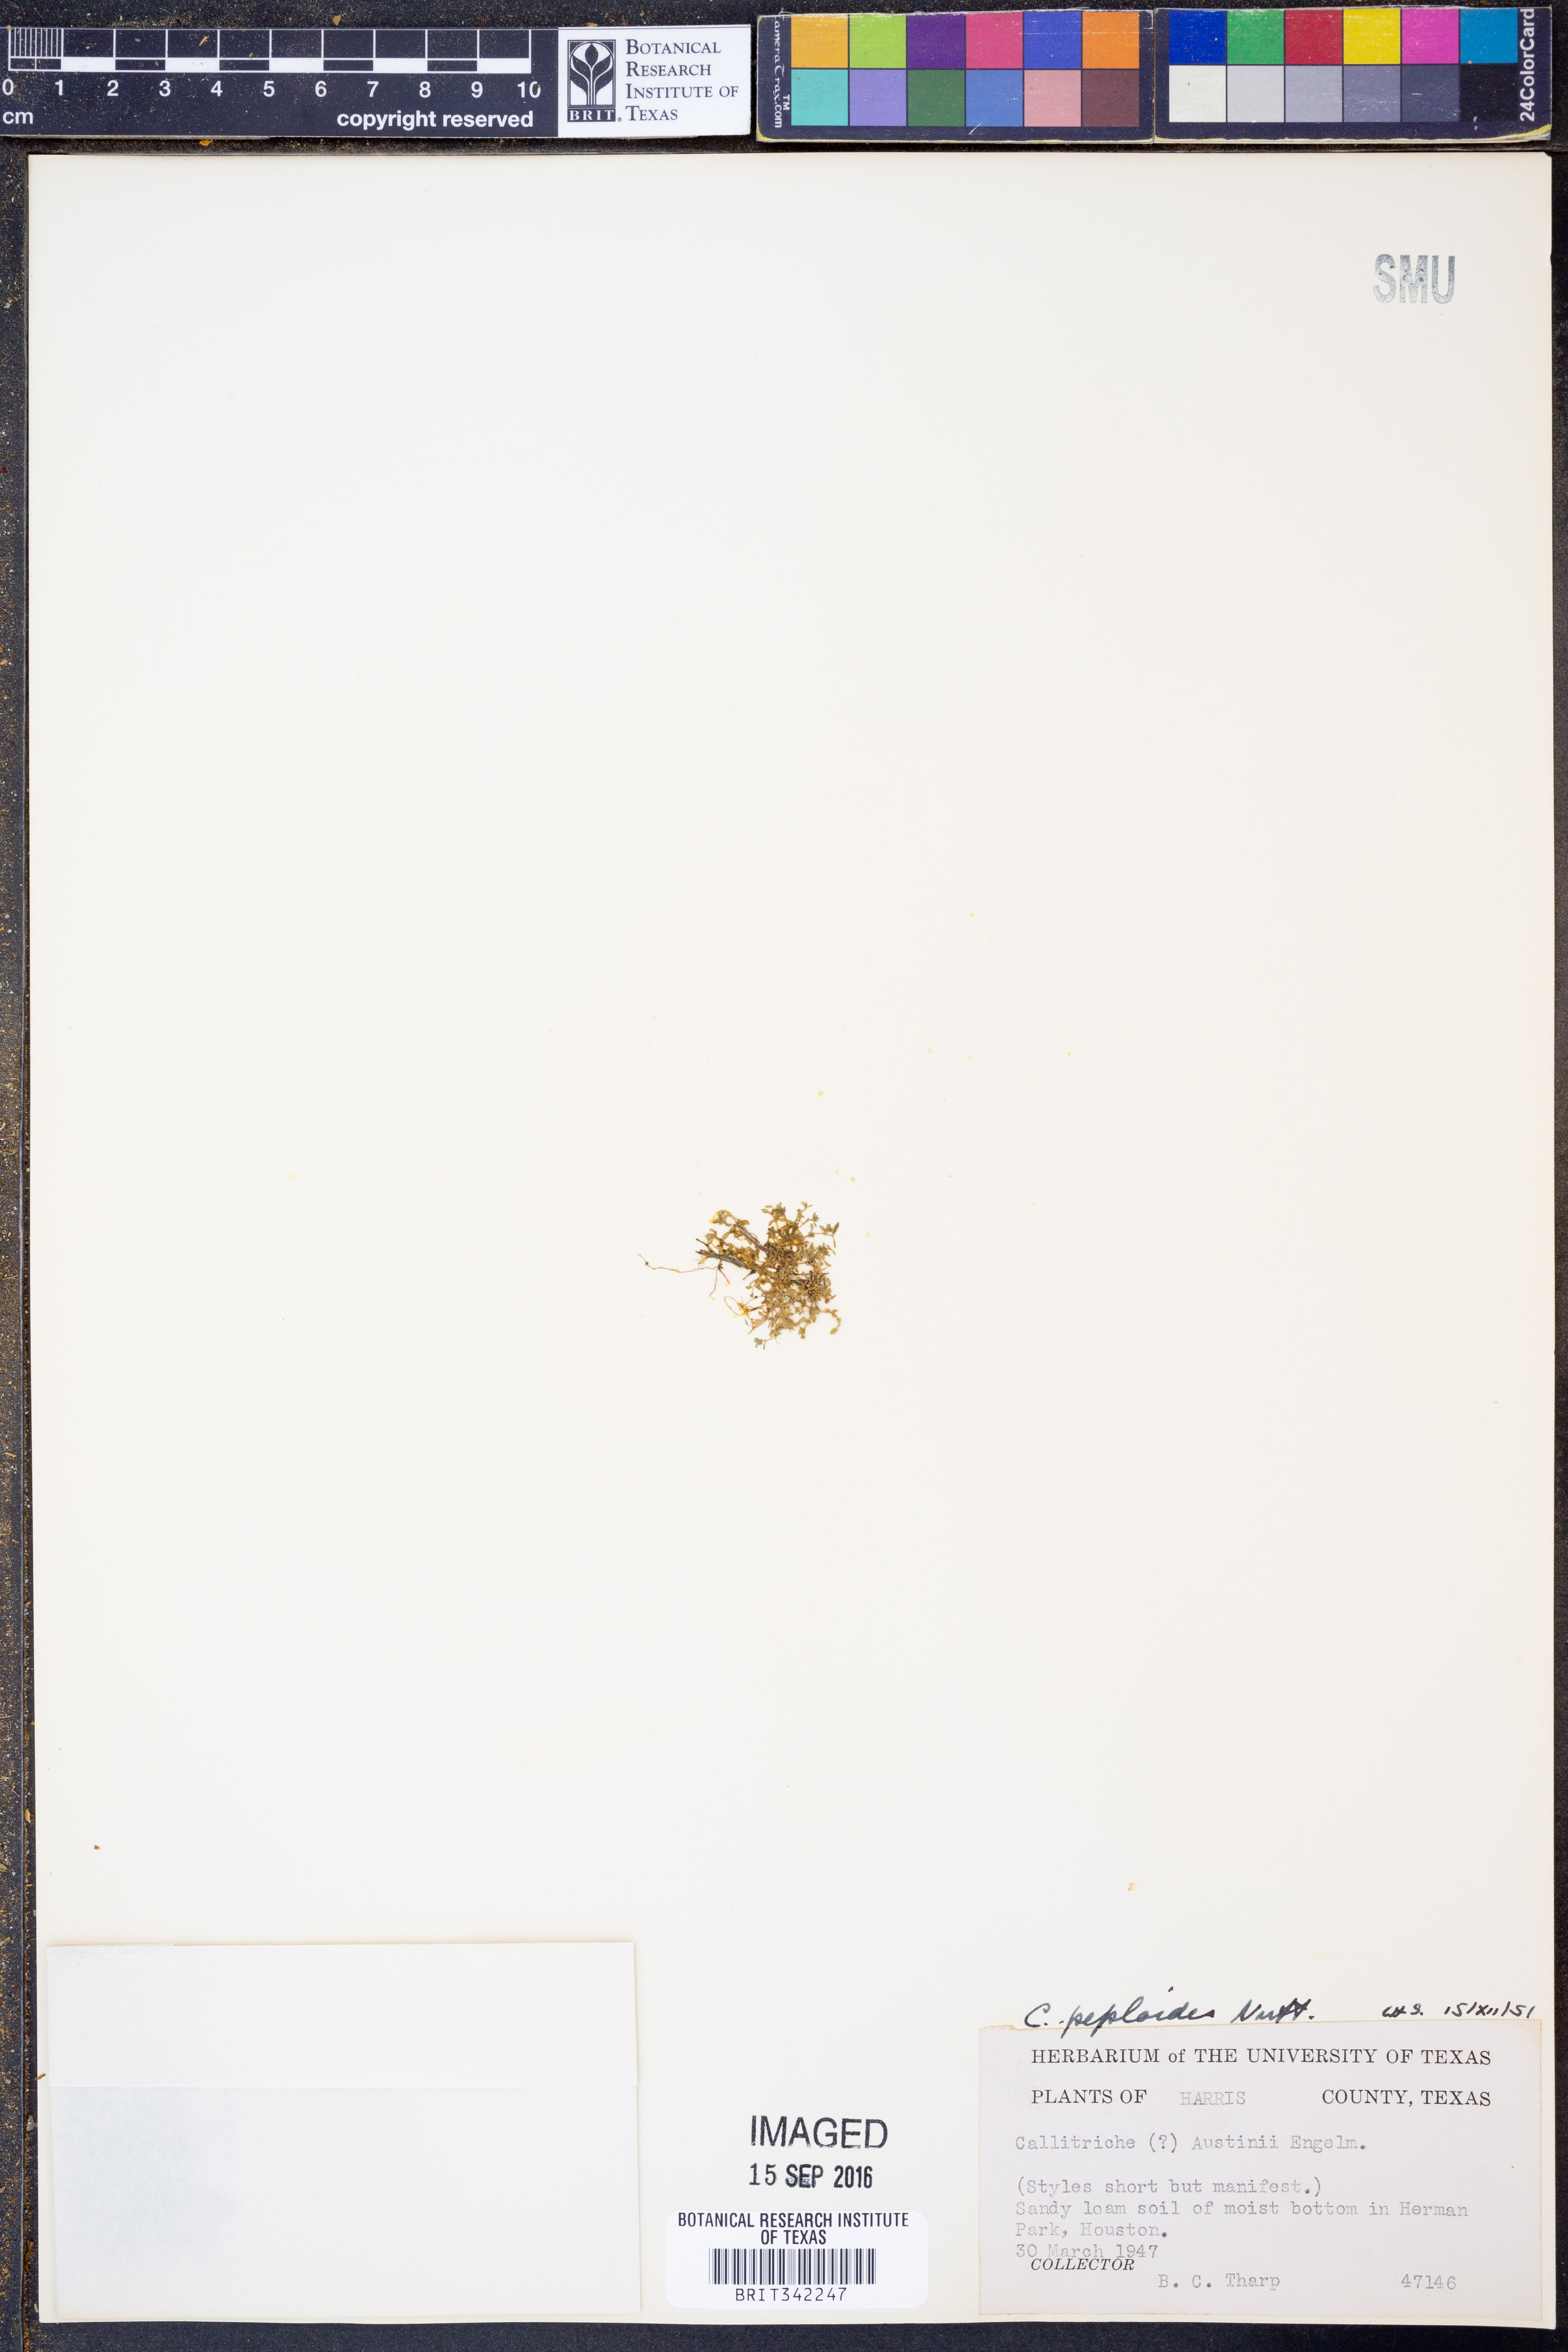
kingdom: Plantae
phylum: Tracheophyta
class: Magnoliopsida
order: Lamiales
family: Plantaginaceae
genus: Callitriche
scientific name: Callitriche peploides
